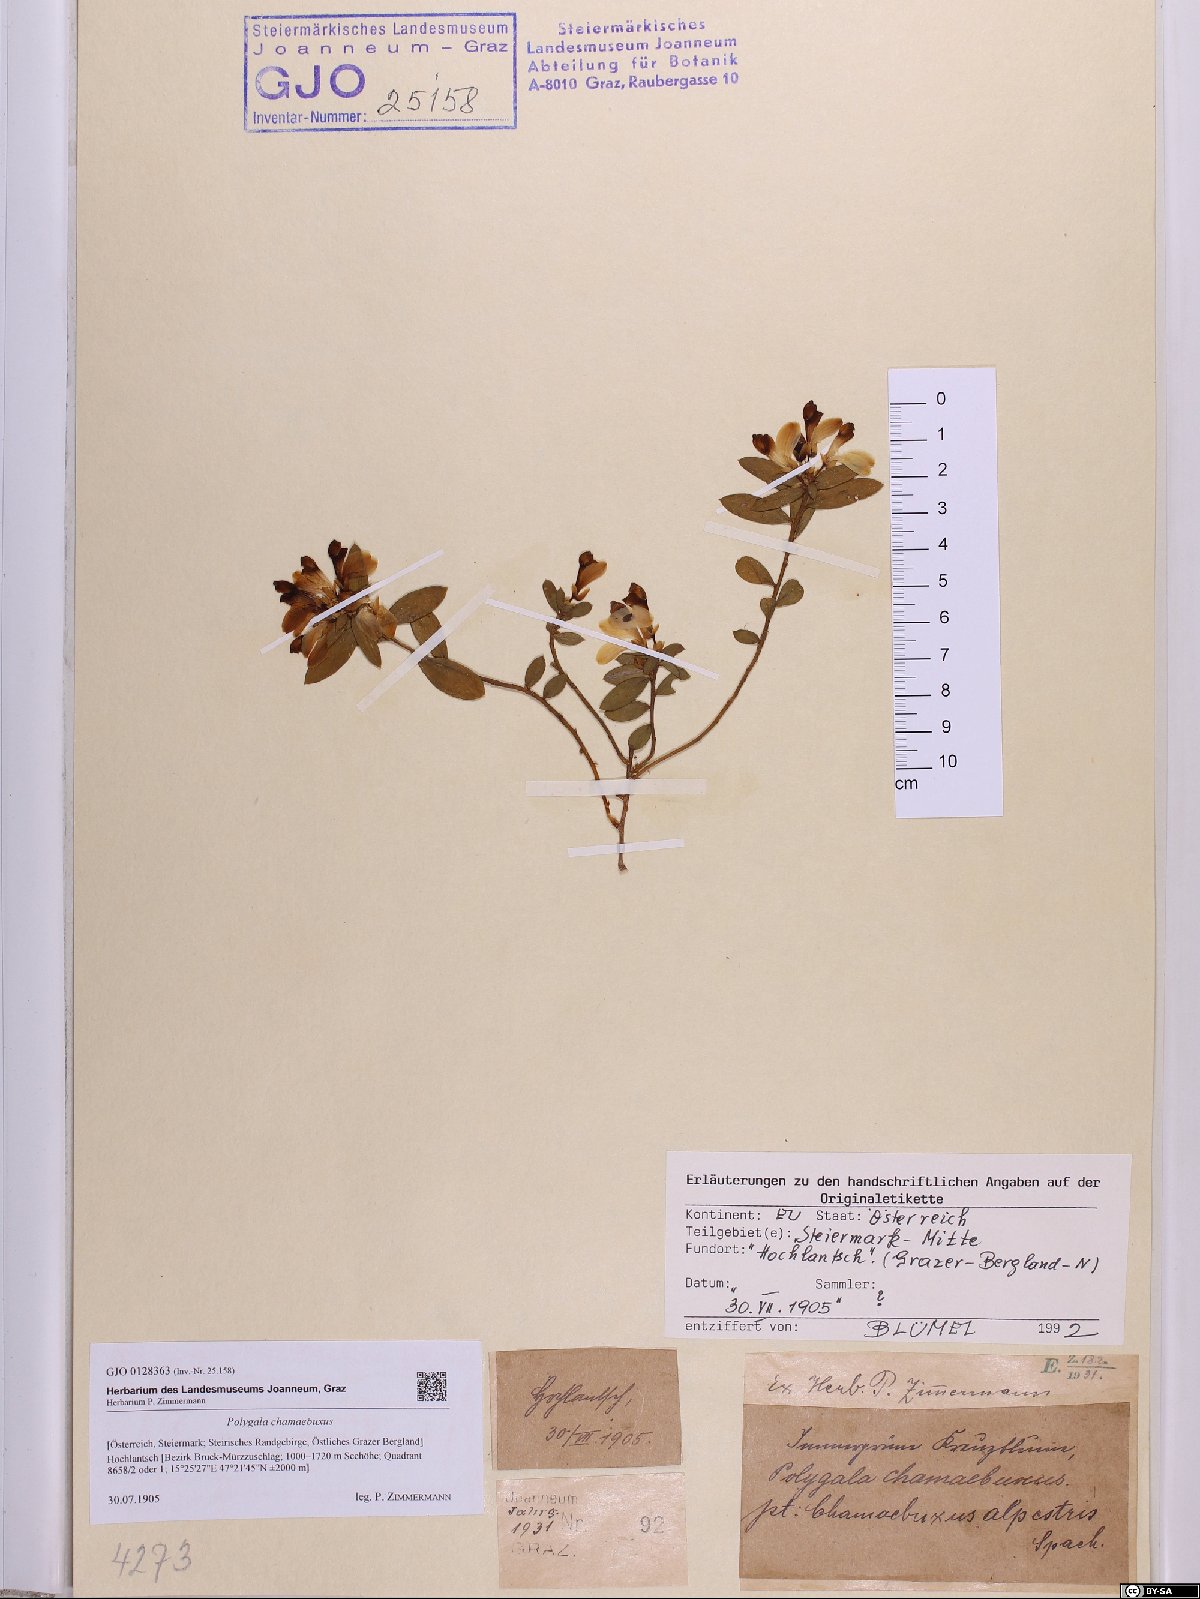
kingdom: Plantae
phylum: Tracheophyta
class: Magnoliopsida
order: Fabales
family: Polygalaceae
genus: Polygaloides
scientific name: Polygaloides chamaebuxus
